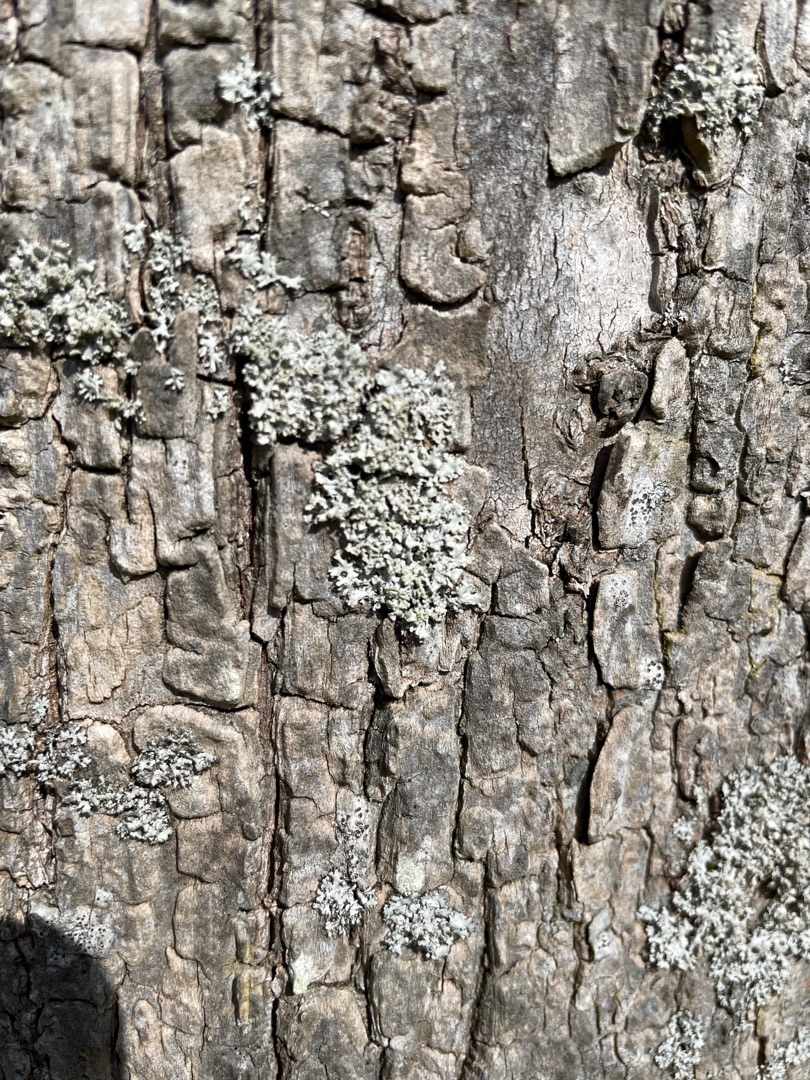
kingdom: Fungi
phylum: Ascomycota
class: Lecanoromycetes
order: Caliciales
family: Physciaceae
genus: Physcia
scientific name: Physcia tenella
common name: Spæd rosetlav
